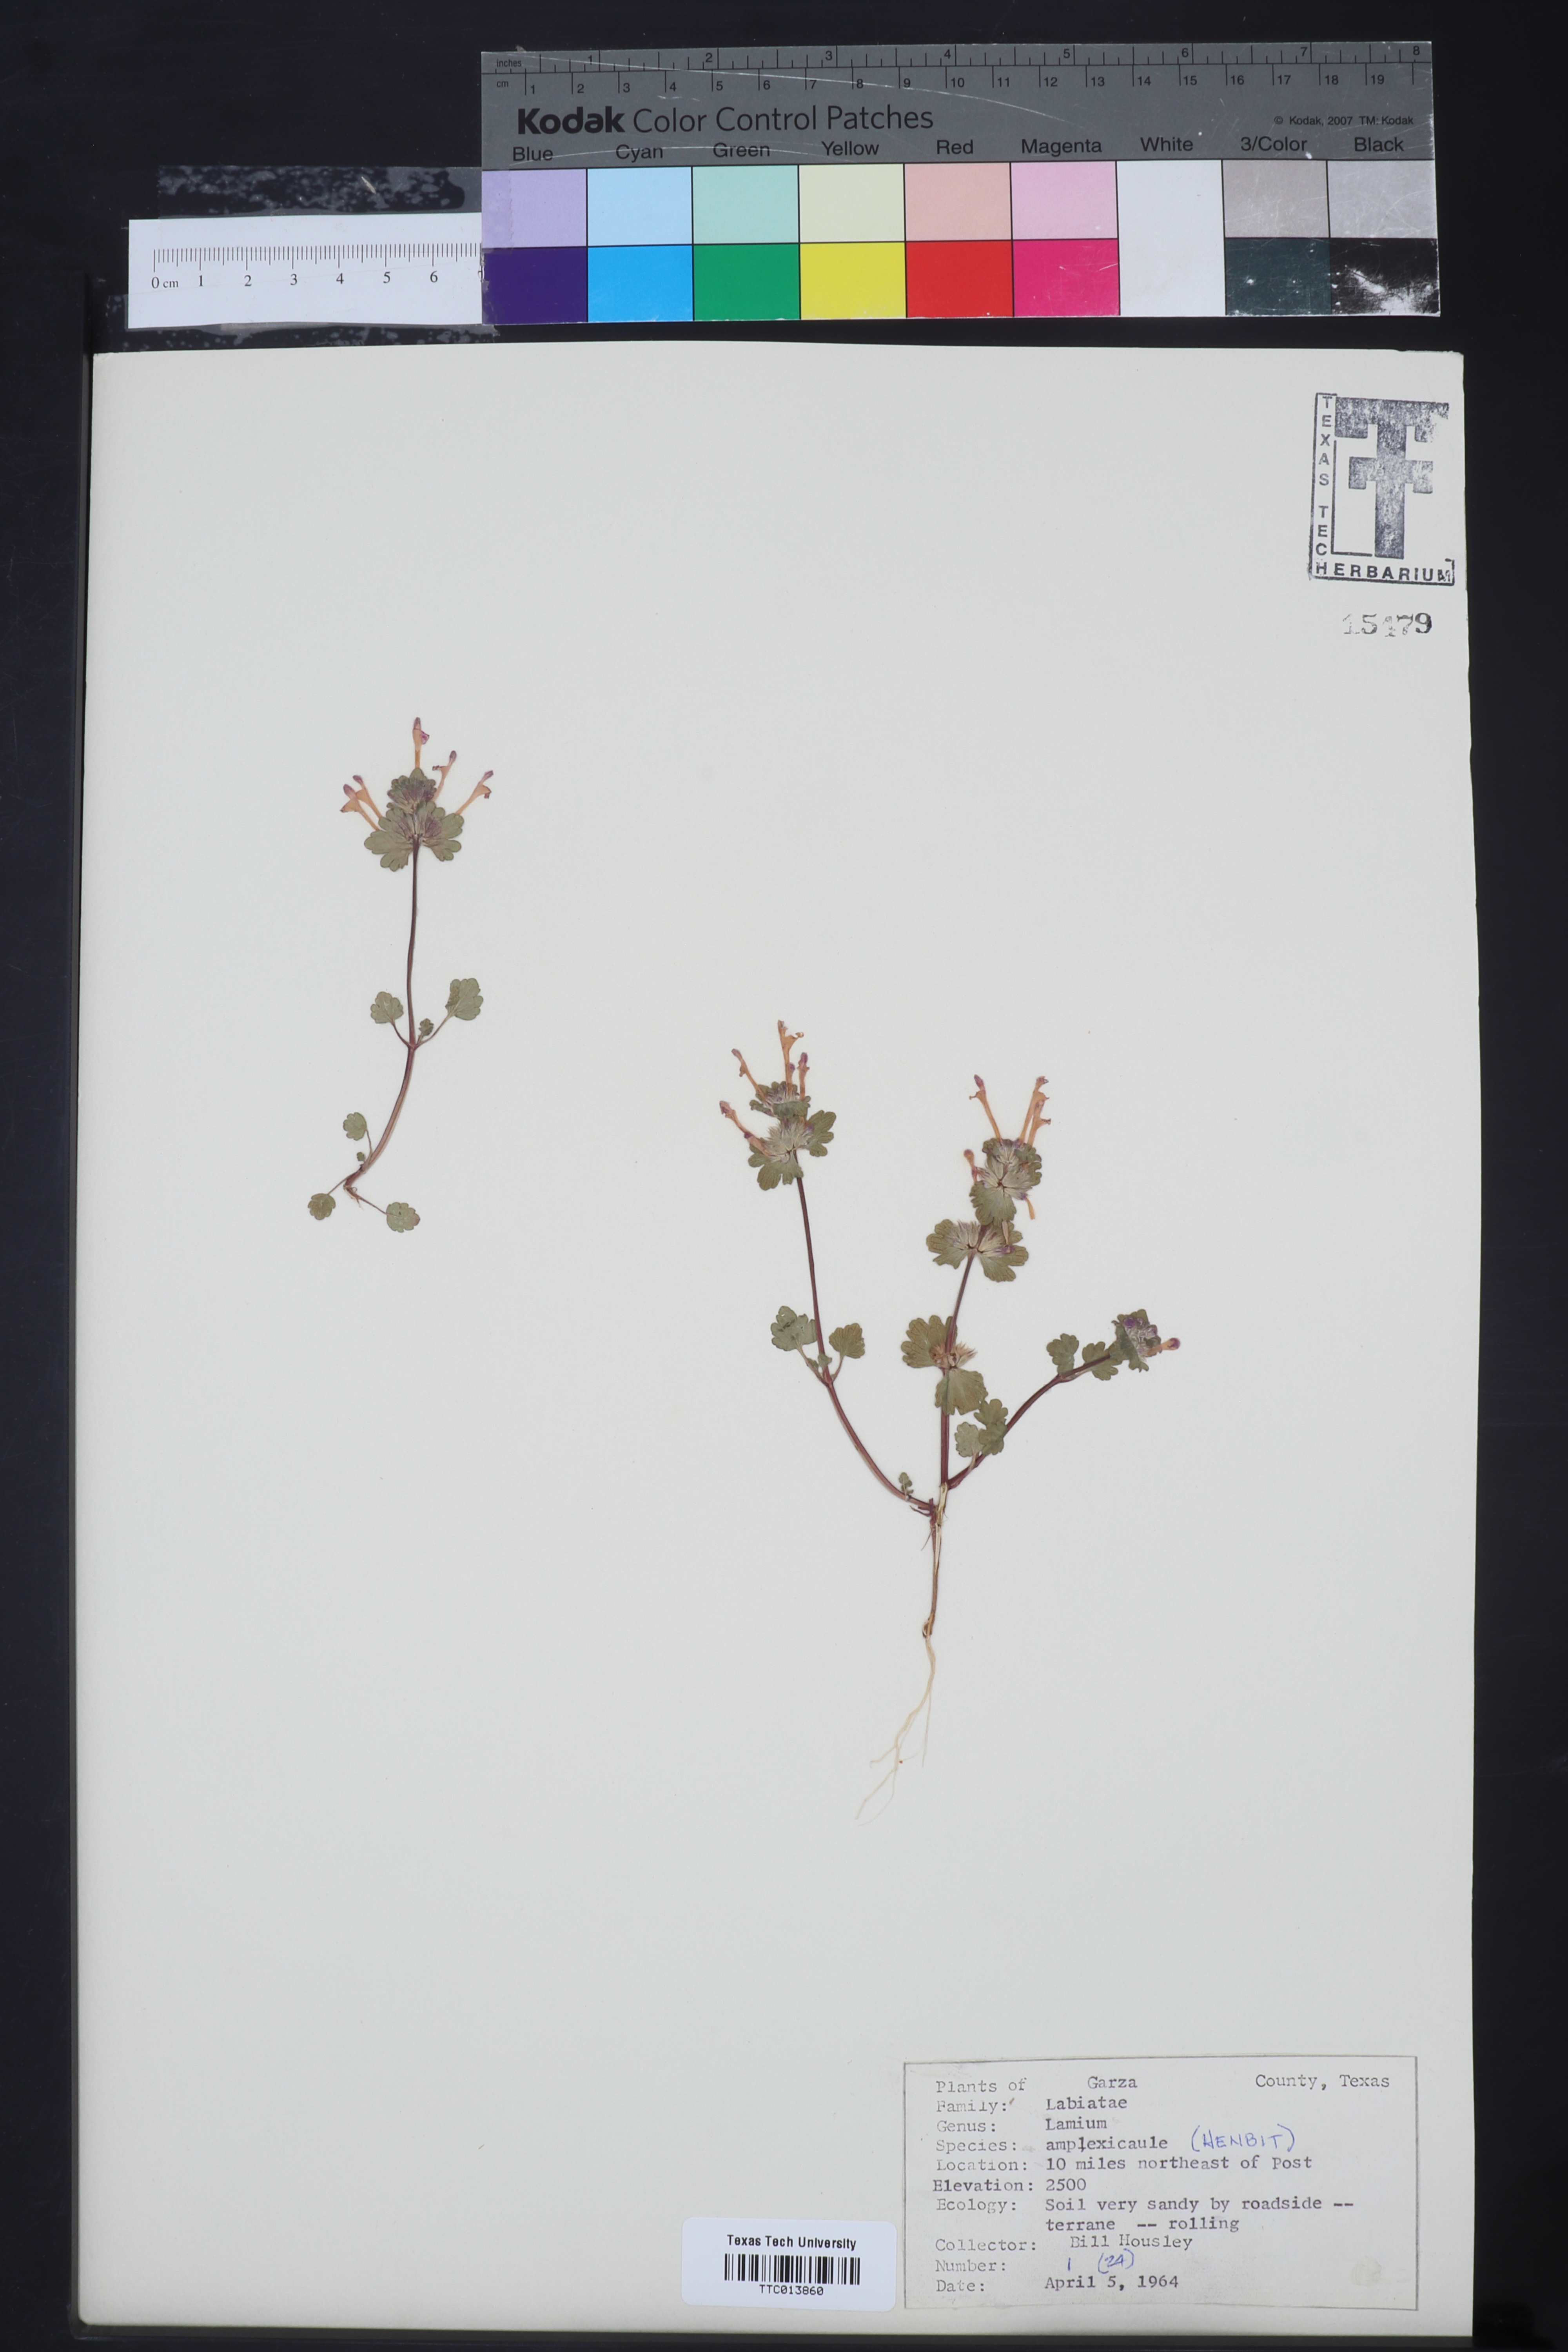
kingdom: Plantae
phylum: Tracheophyta
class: Magnoliopsida
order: Lamiales
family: Lamiaceae
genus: Lamium
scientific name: Lamium amplexicaule
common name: Henbit dead-nettle
